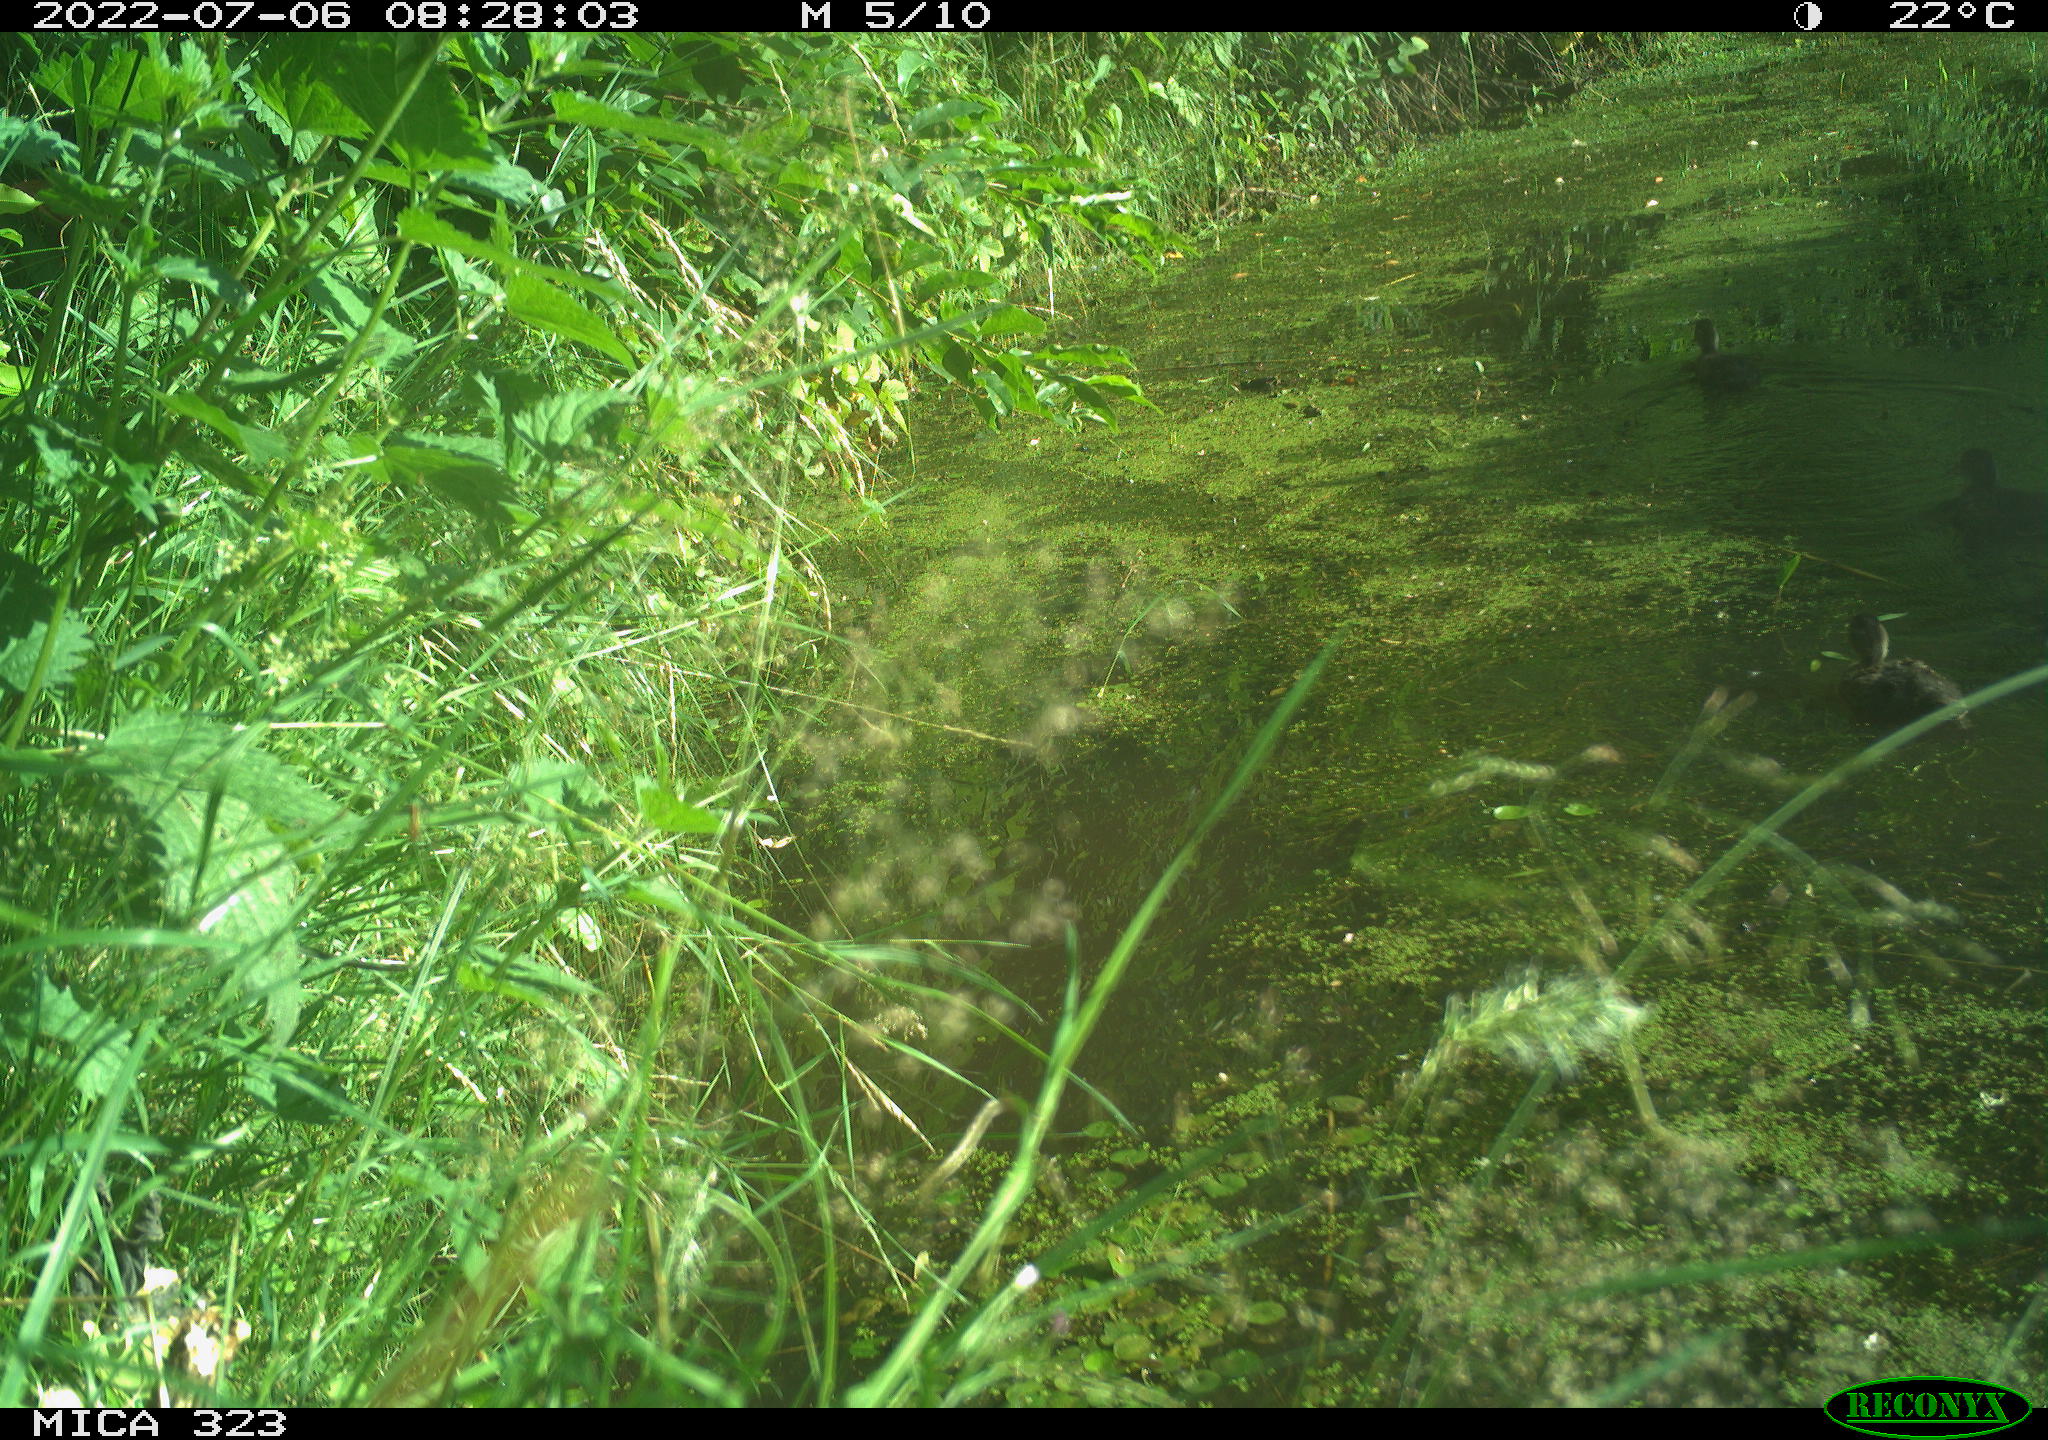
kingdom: Animalia
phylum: Chordata
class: Aves
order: Anseriformes
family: Anatidae
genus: Anas
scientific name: Anas
